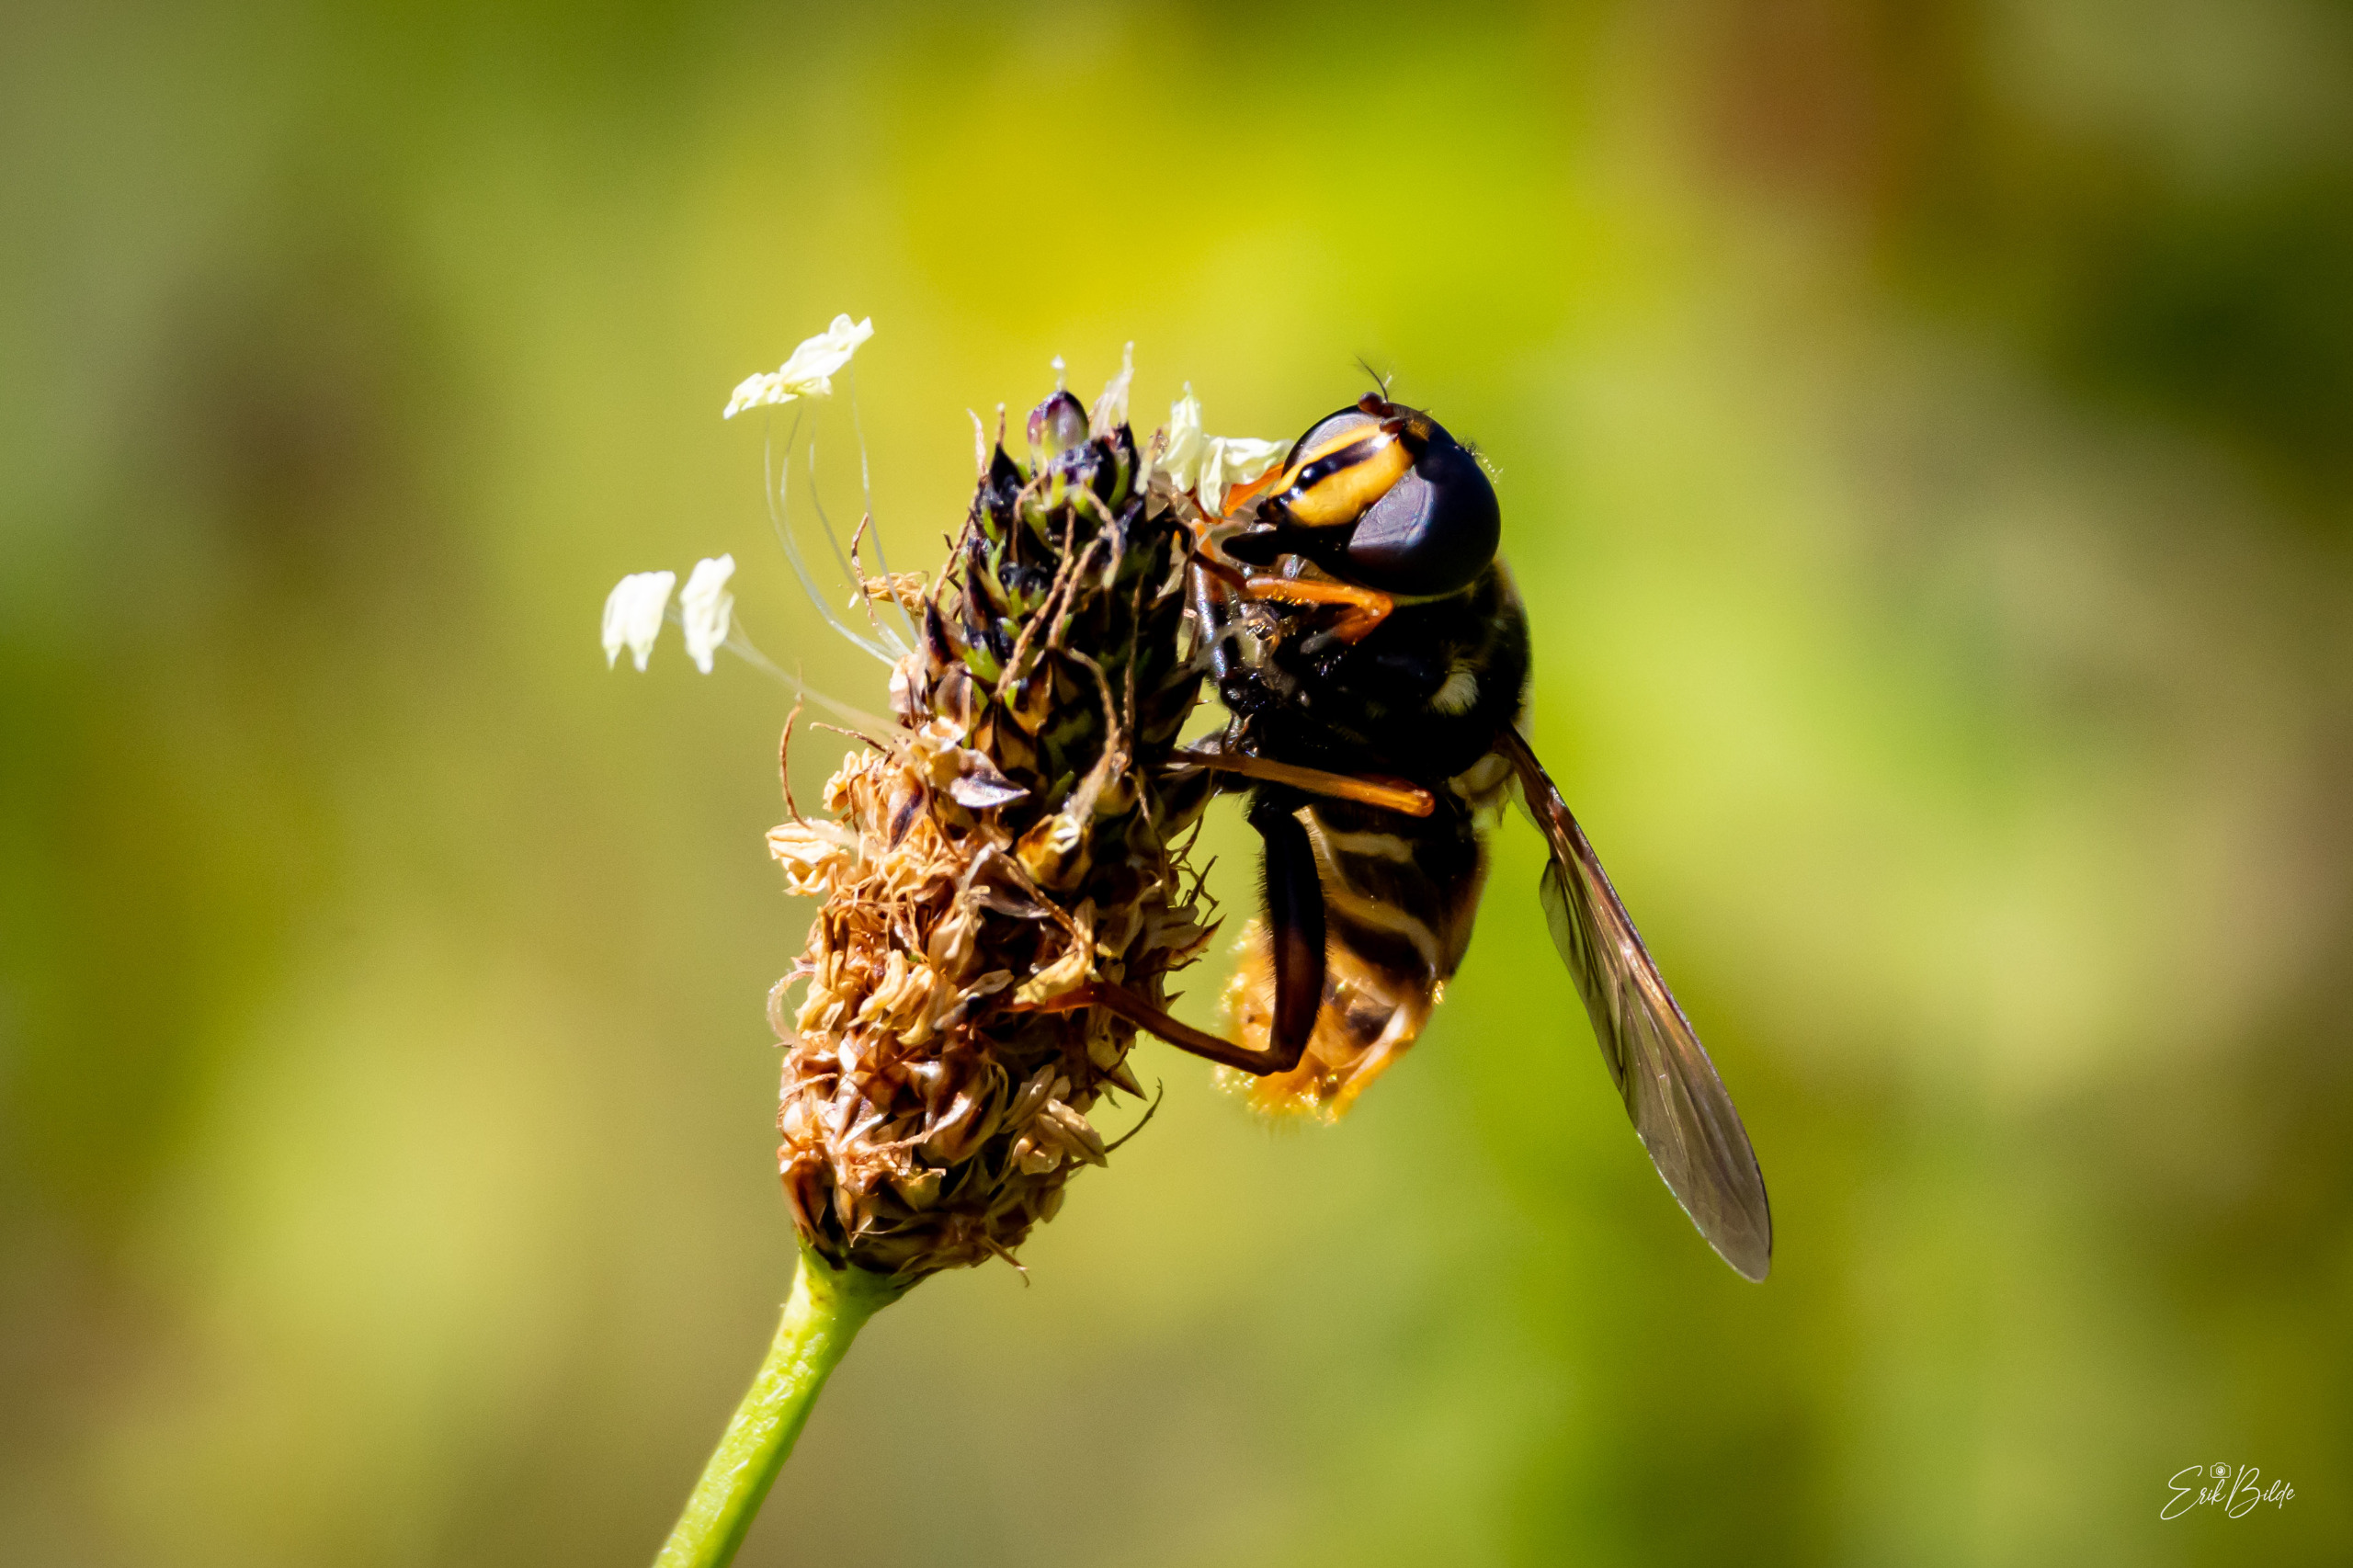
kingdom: Animalia
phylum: Arthropoda
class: Insecta
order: Diptera
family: Syrphidae
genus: Sericomyia
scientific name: Sericomyia silentis
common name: Tørve-silkesvirreflue
